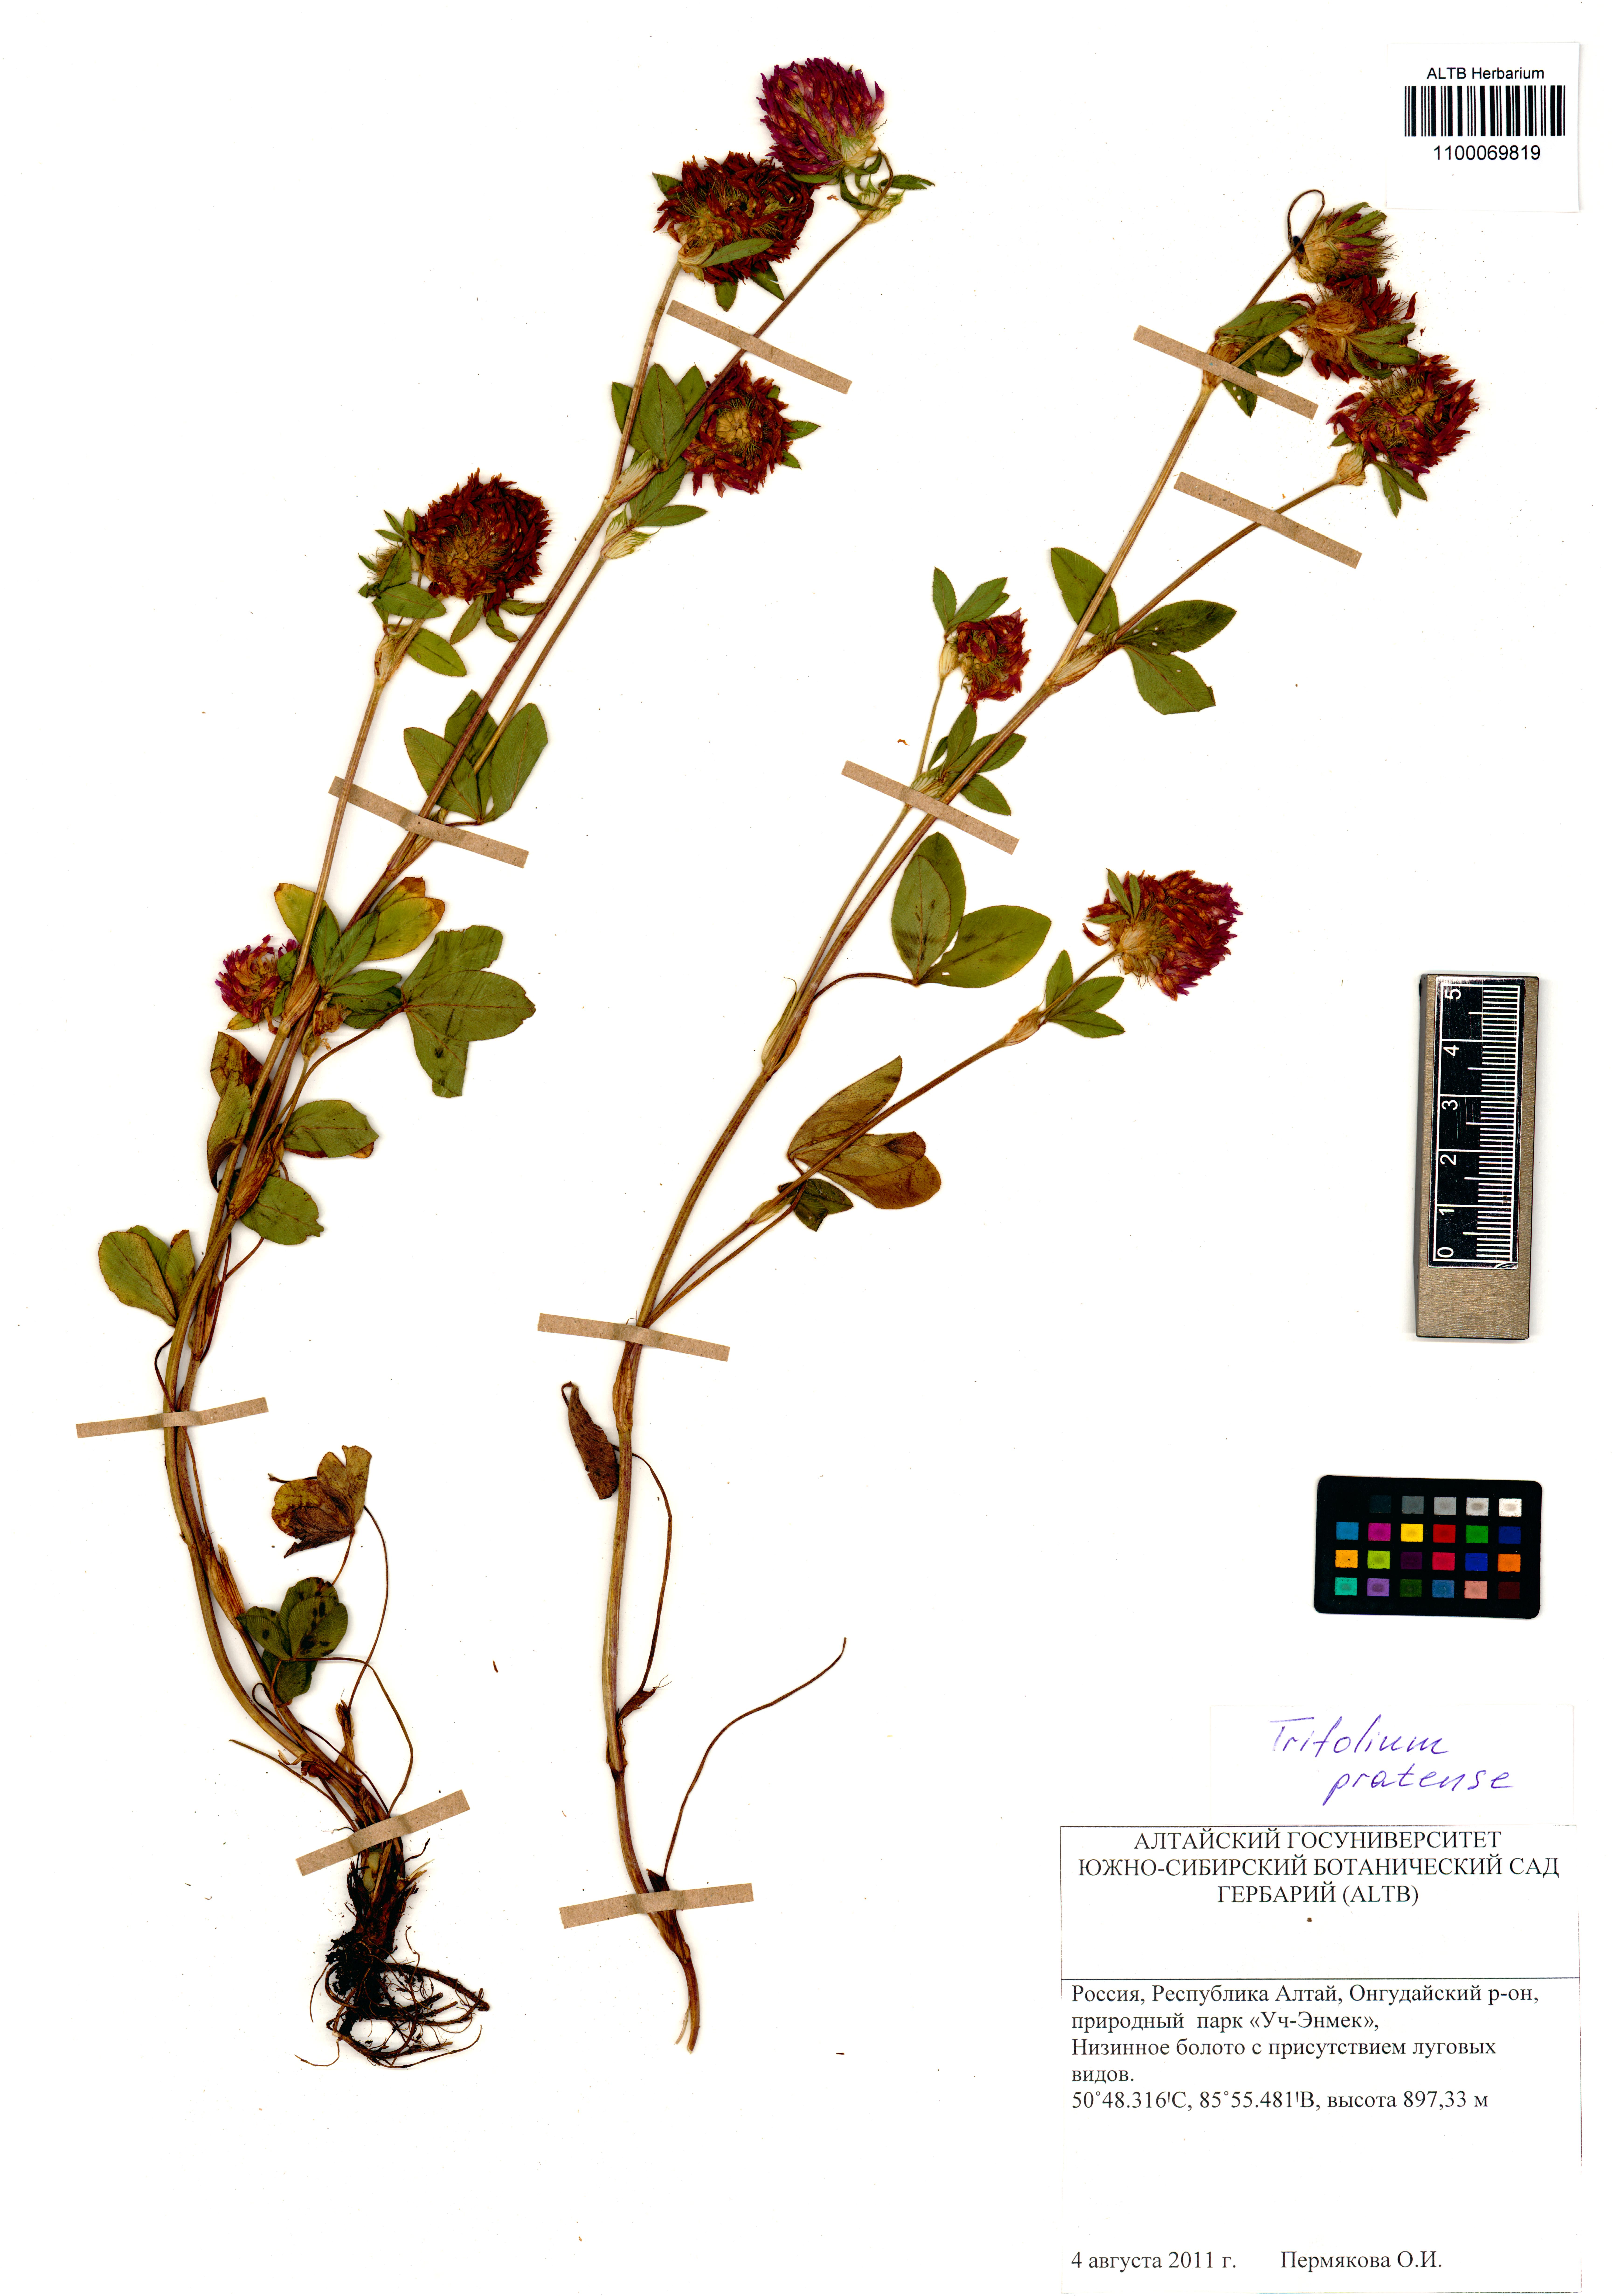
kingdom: Plantae
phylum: Tracheophyta
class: Magnoliopsida
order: Fabales
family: Fabaceae
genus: Trifolium
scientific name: Trifolium pratense
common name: Red clover
